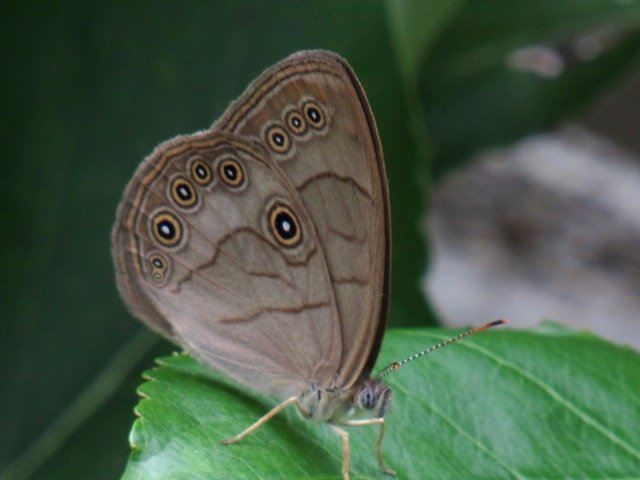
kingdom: Animalia
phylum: Arthropoda
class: Insecta
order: Lepidoptera
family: Nymphalidae
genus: Lethe
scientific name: Lethe eurydice
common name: Appalachian Eyed Brown
